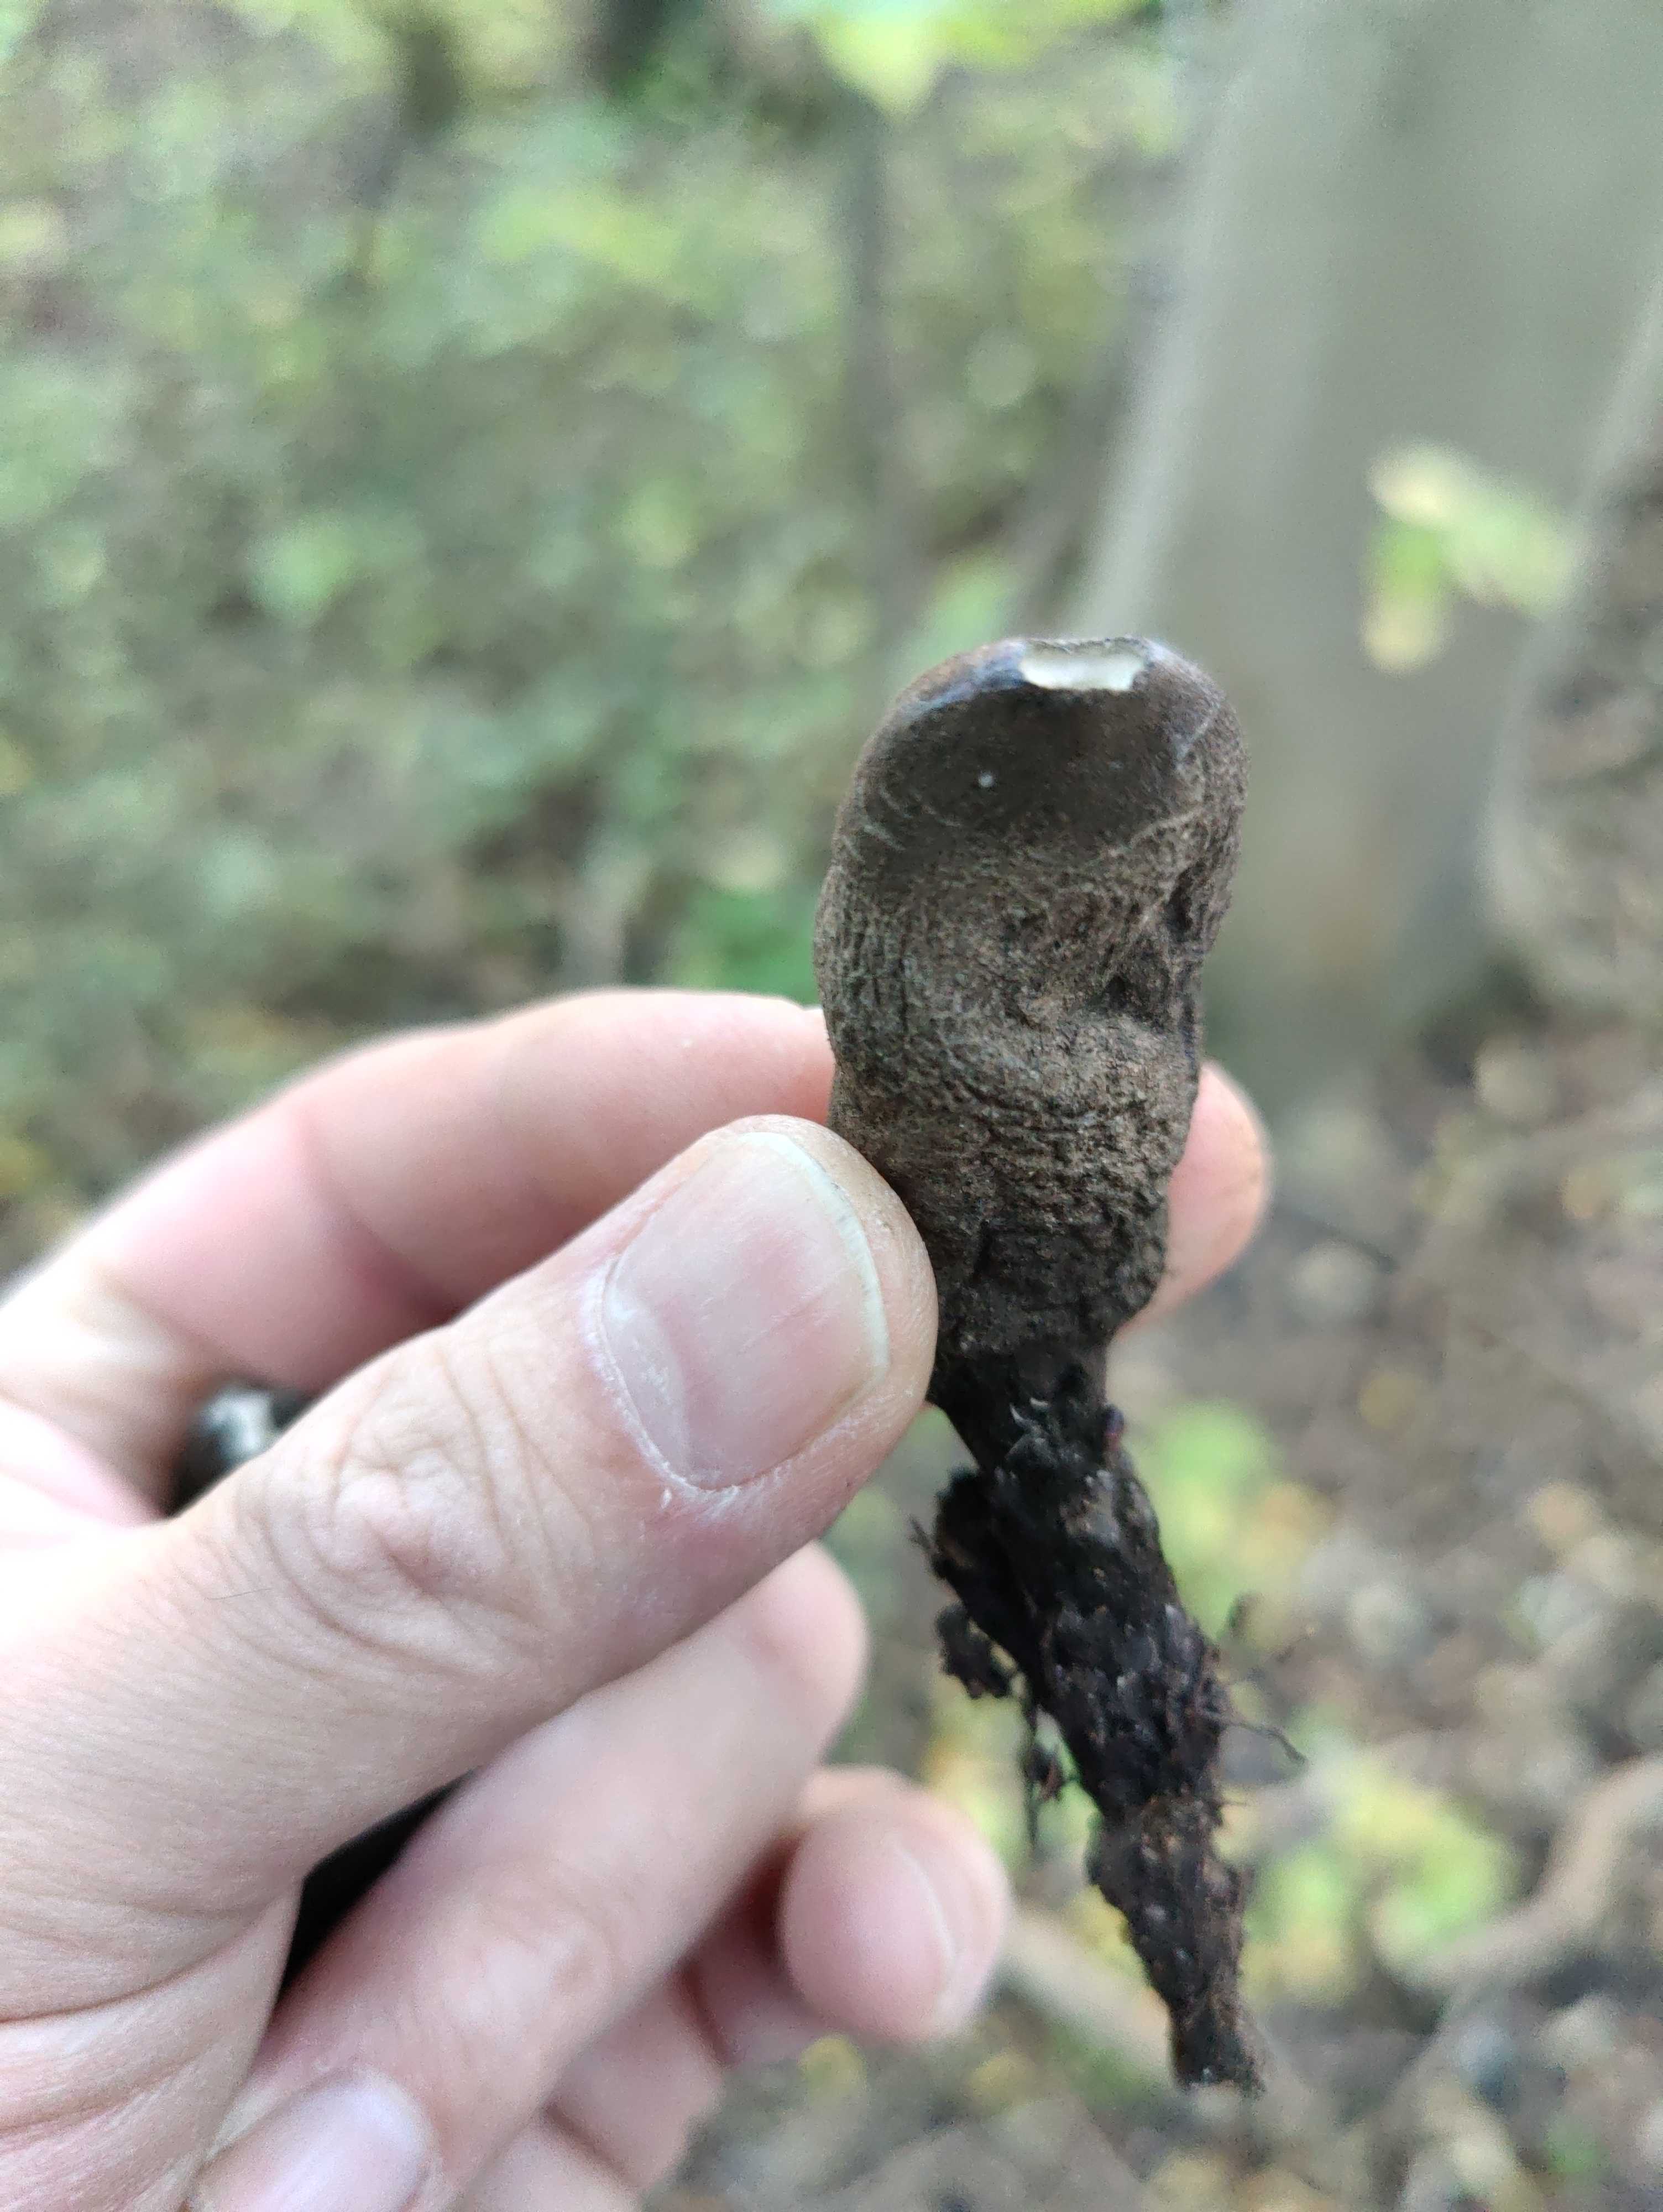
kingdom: Fungi
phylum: Ascomycota
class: Sordariomycetes
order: Xylariales
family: Xylariaceae
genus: Xylaria
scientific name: Xylaria polymorpha
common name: kølle-stødsvamp
